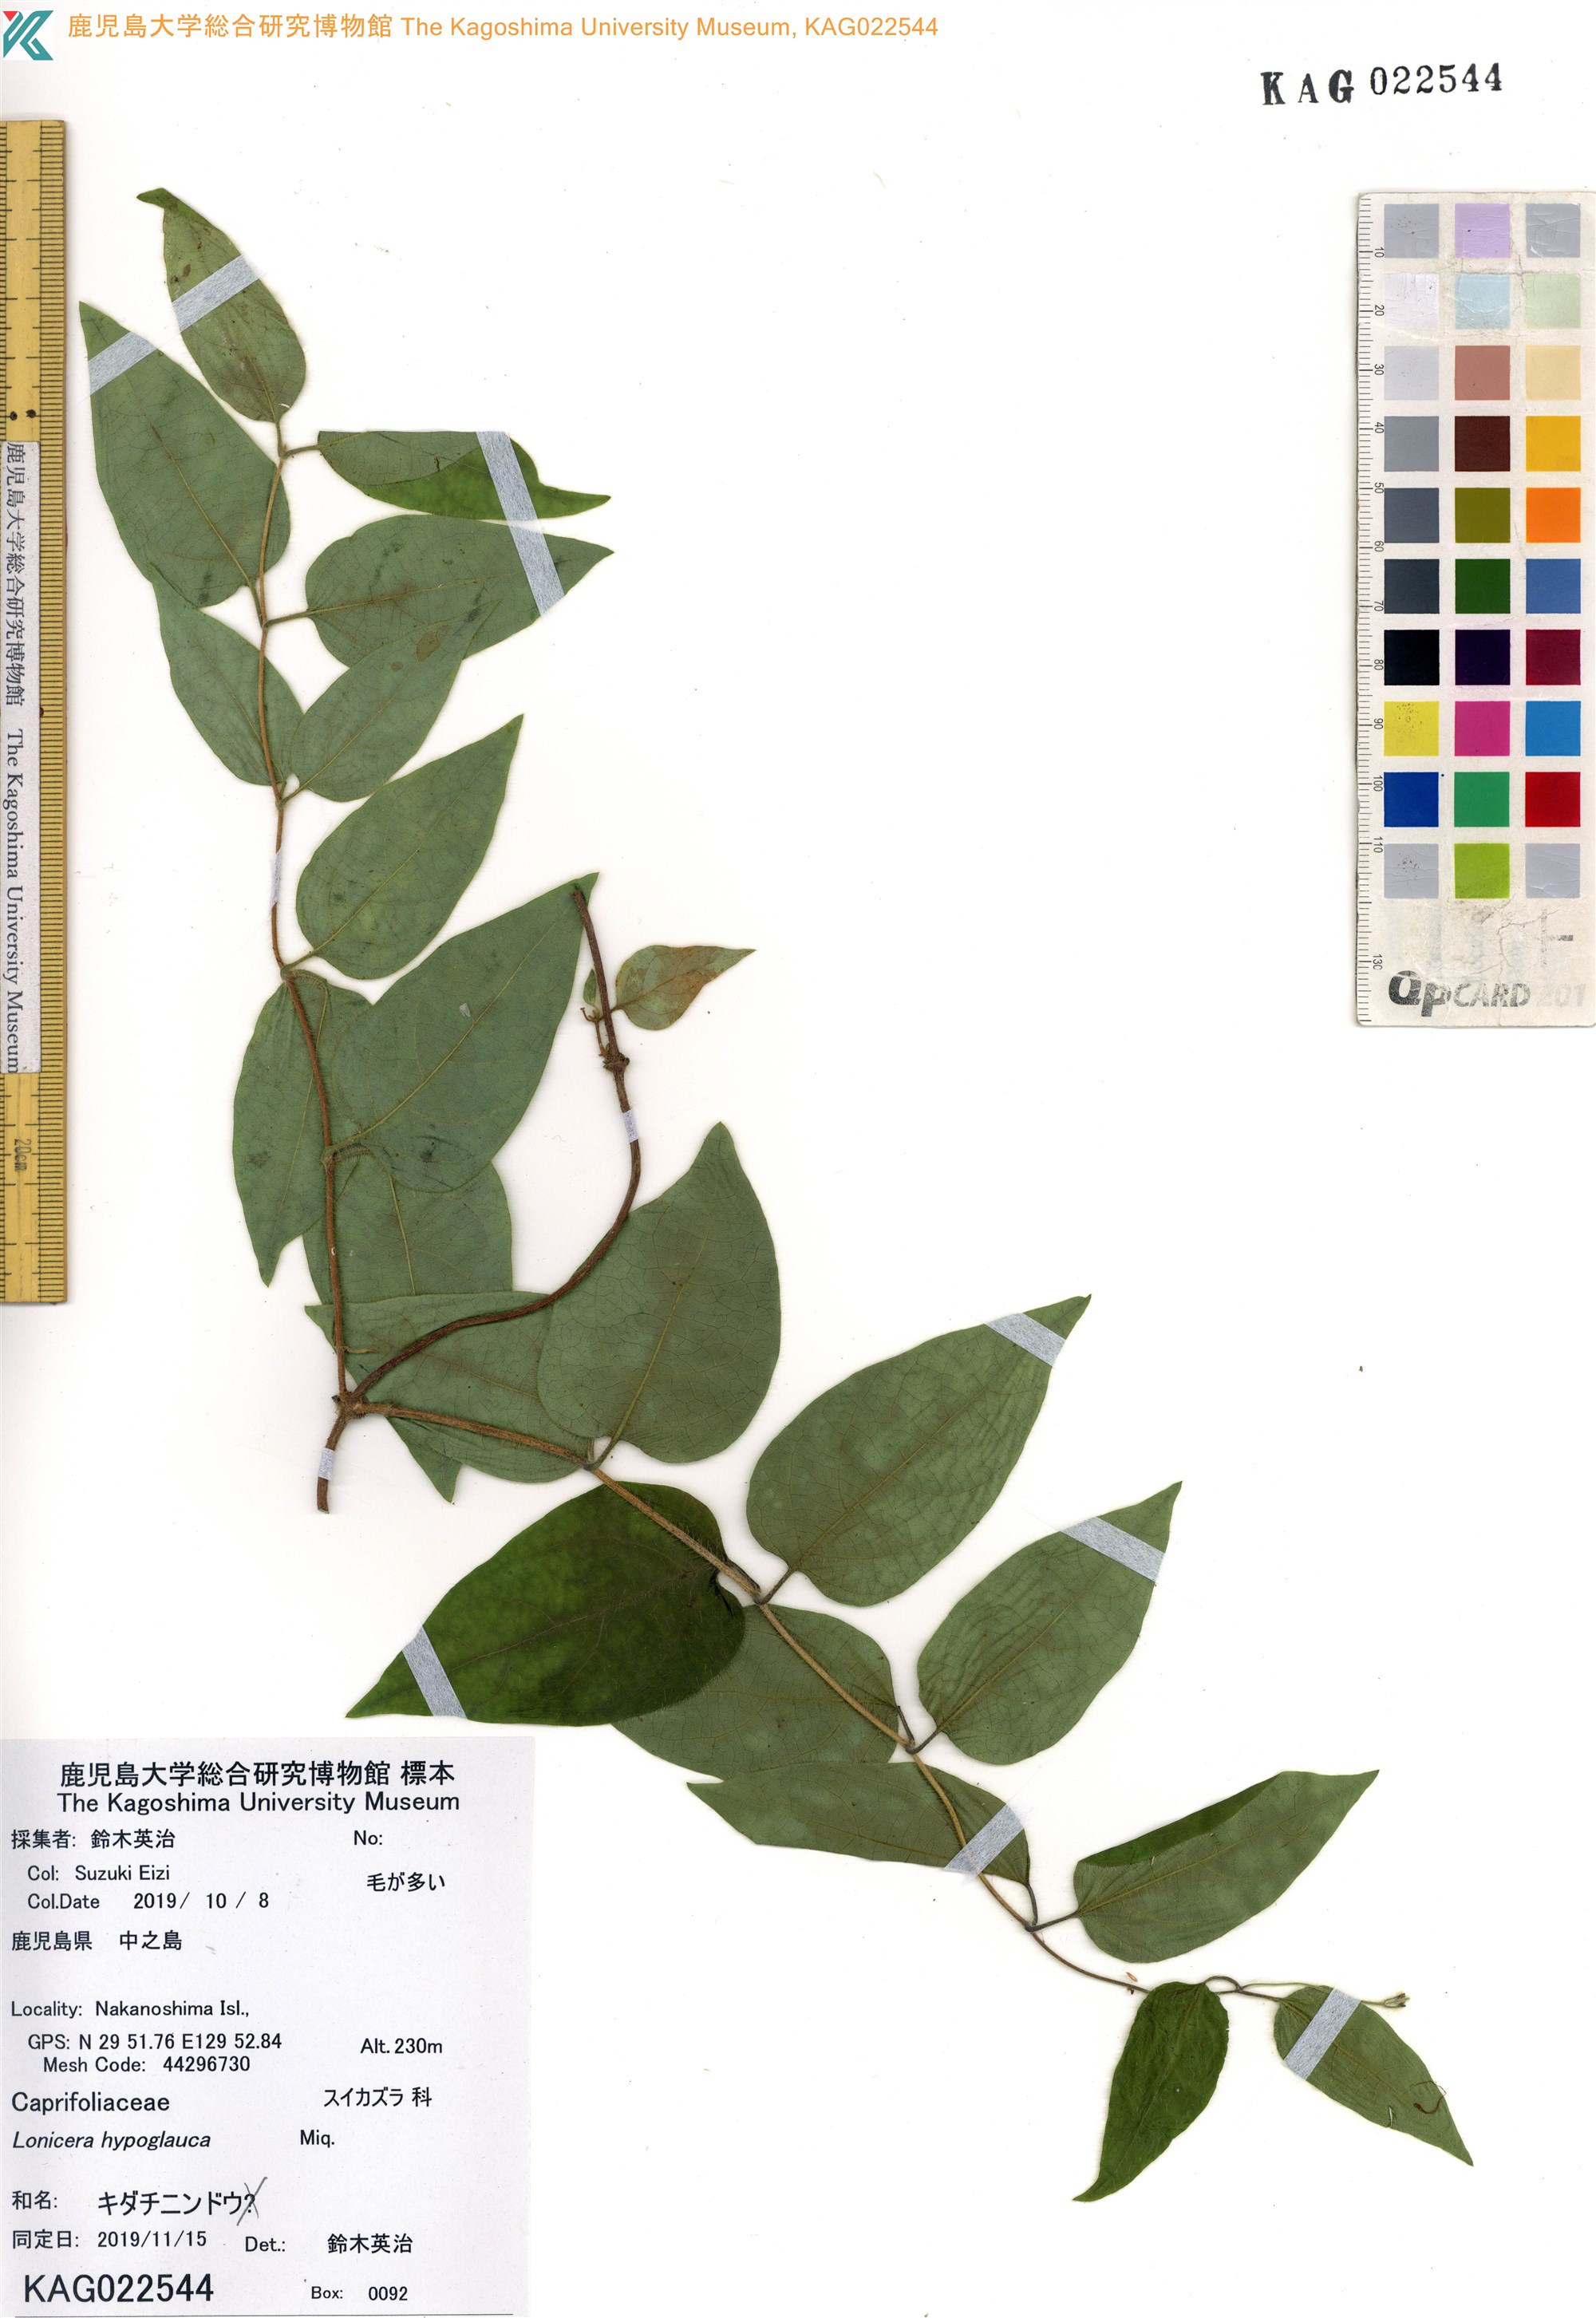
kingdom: Plantae
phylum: Tracheophyta
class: Magnoliopsida
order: Dipsacales
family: Caprifoliaceae
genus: Lonicera
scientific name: Lonicera hypoglauca
